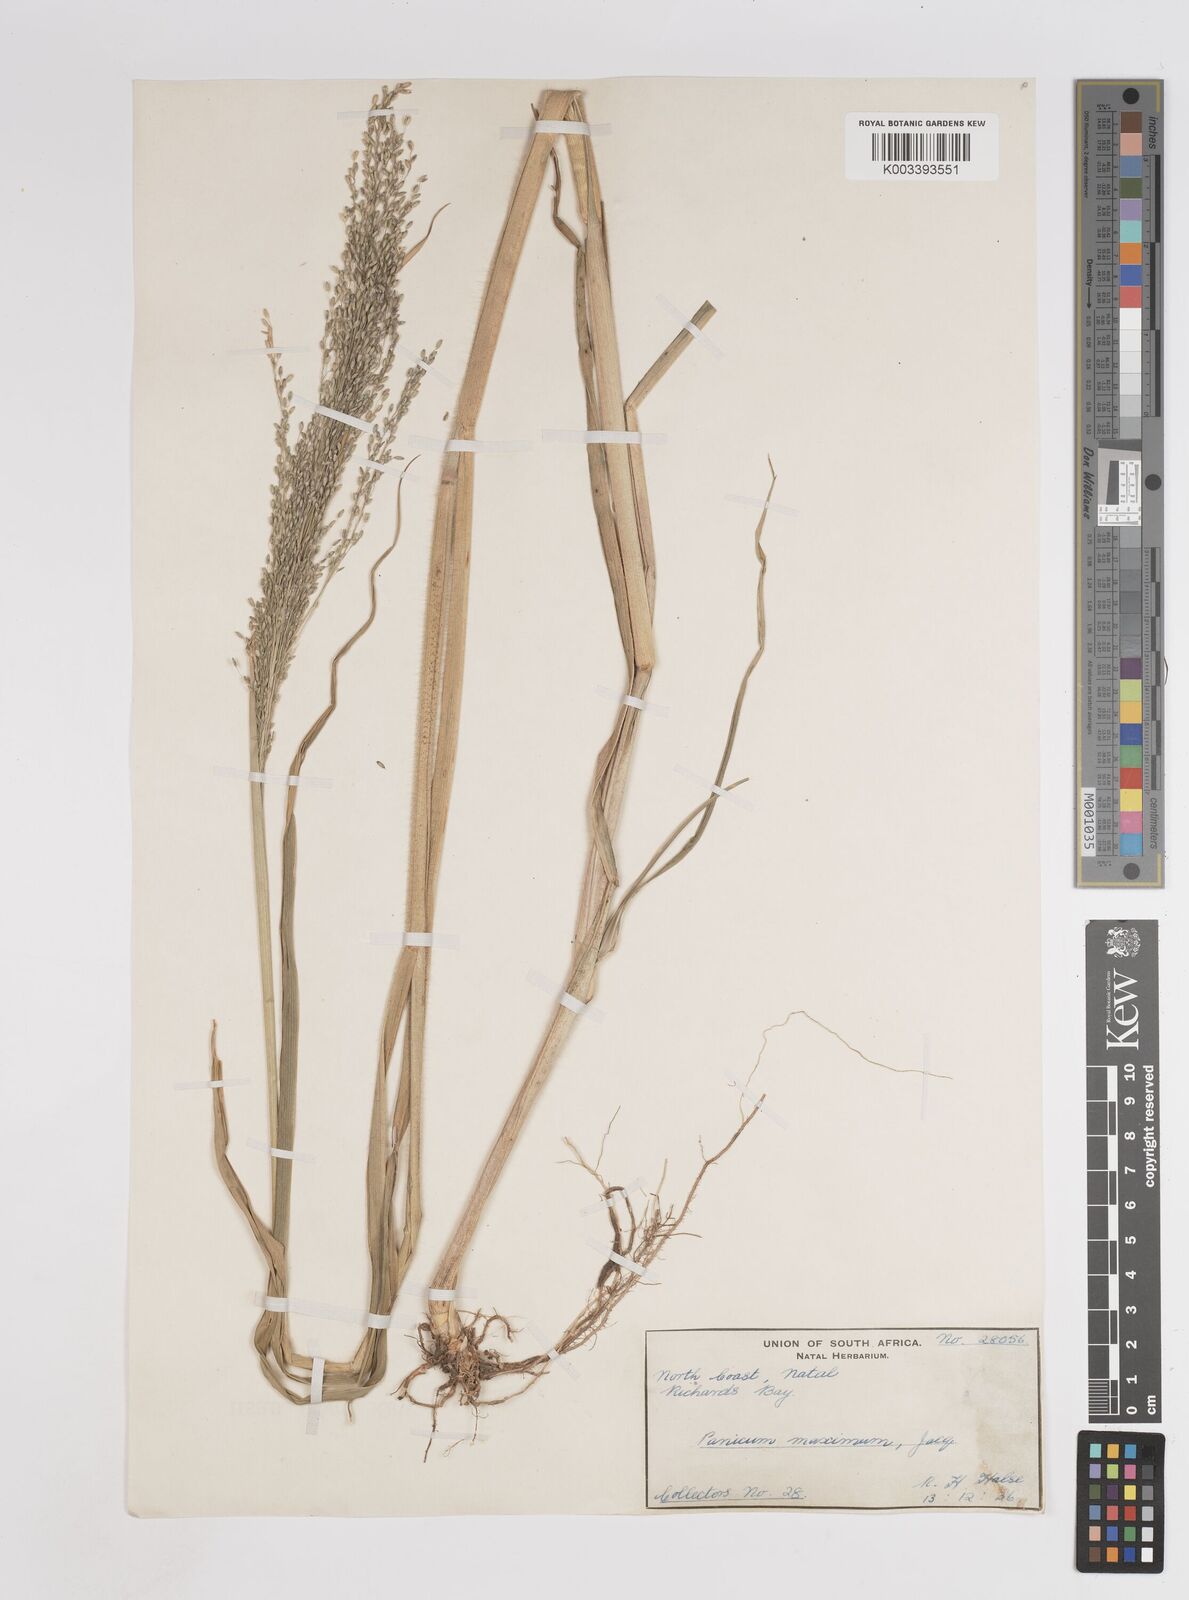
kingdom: Plantae
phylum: Tracheophyta
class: Liliopsida
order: Poales
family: Poaceae
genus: Megathyrsus
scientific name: Megathyrsus maximus
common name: Guineagrass
